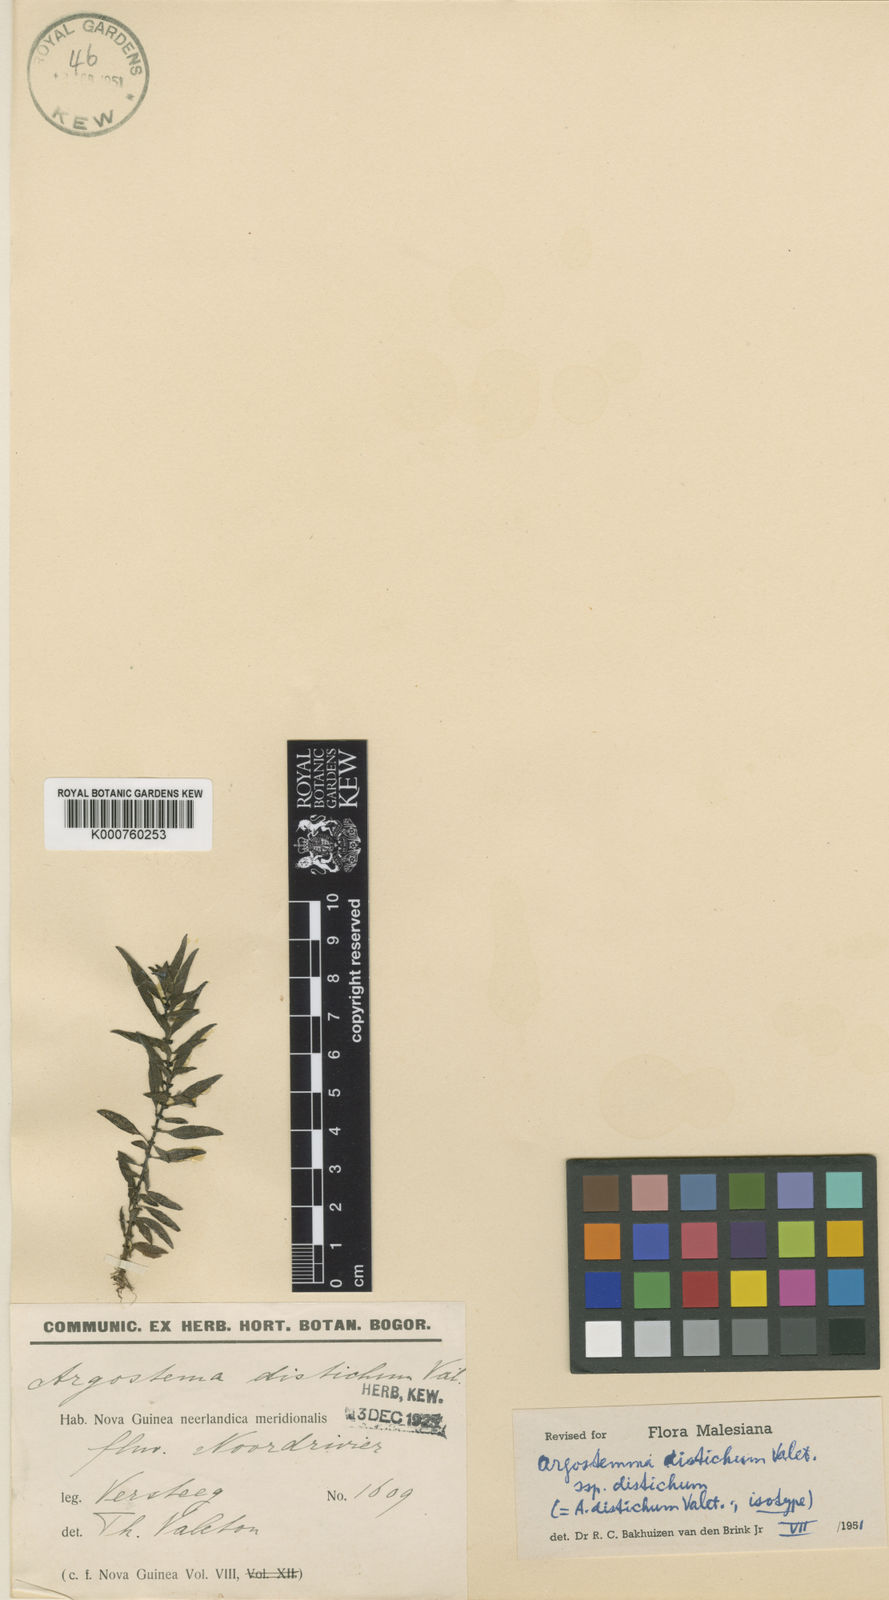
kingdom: Plantae
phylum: Tracheophyta
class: Magnoliopsida
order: Gentianales
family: Rubiaceae
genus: Argostemma
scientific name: Argostemma distichum
